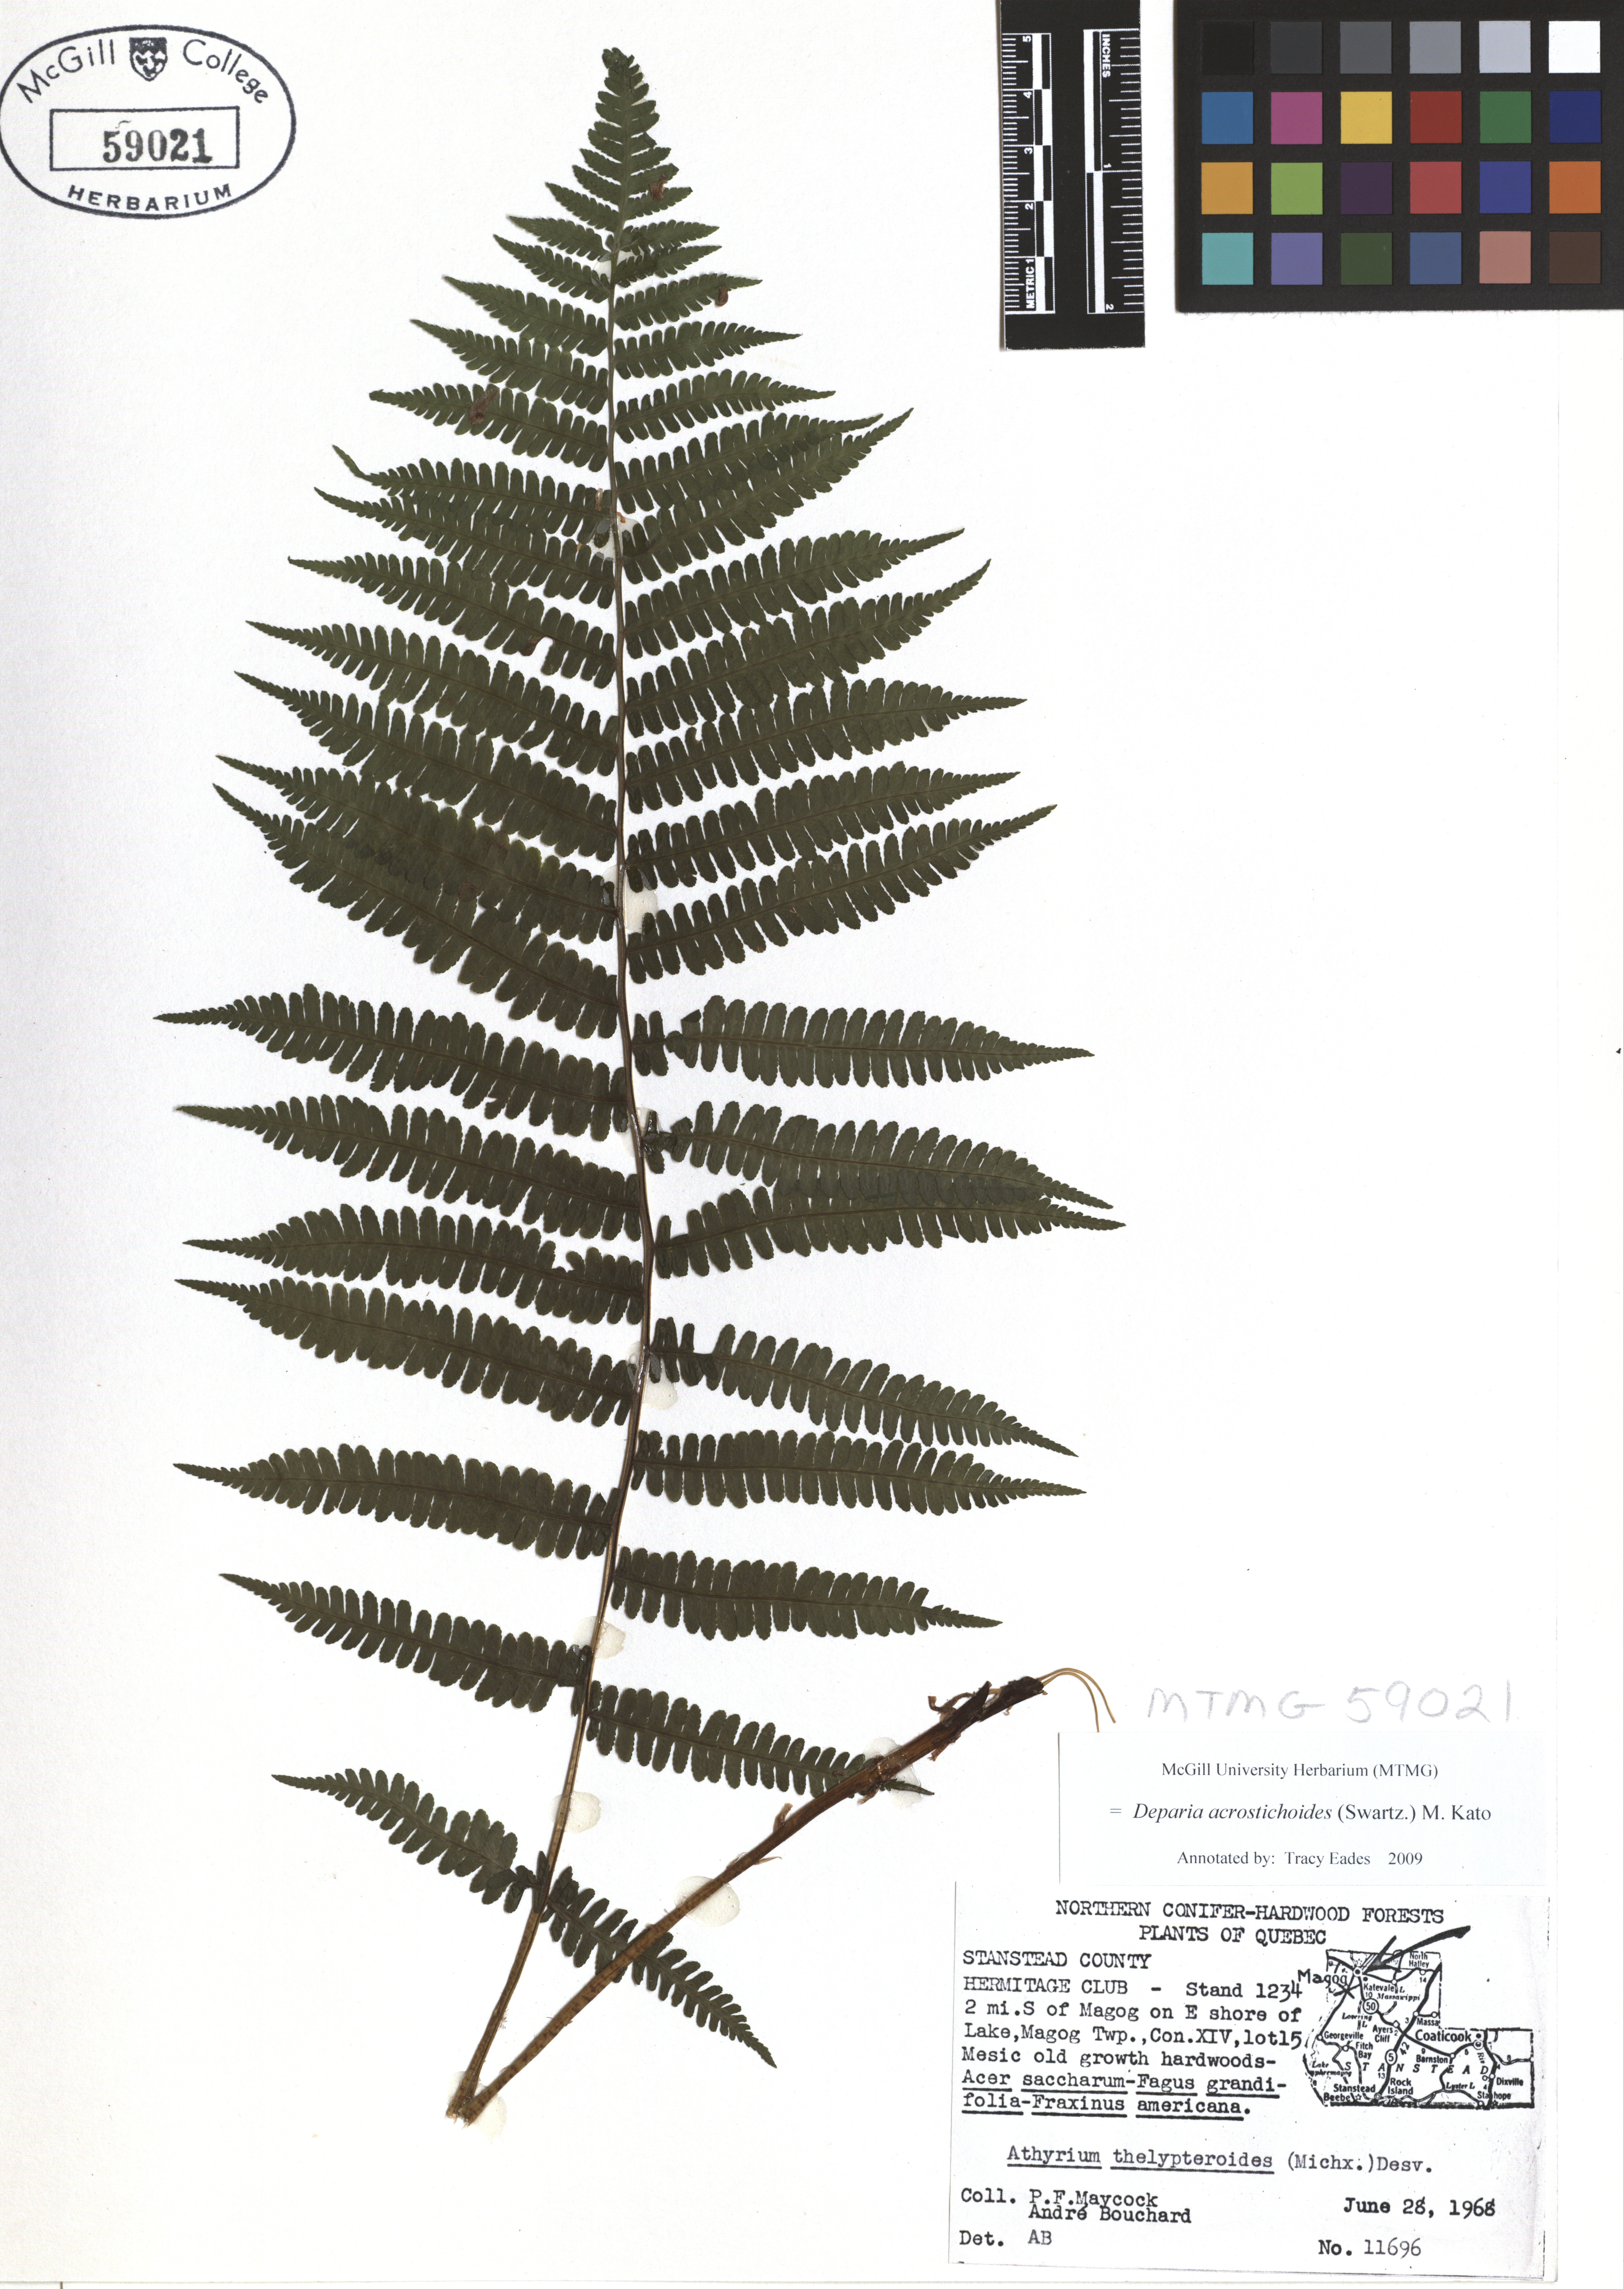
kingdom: Plantae
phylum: Tracheophyta
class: Polypodiopsida
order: Polypodiales
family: Athyriaceae
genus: Deparia
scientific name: Deparia acrostichoides
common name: Silver false spleenwort
